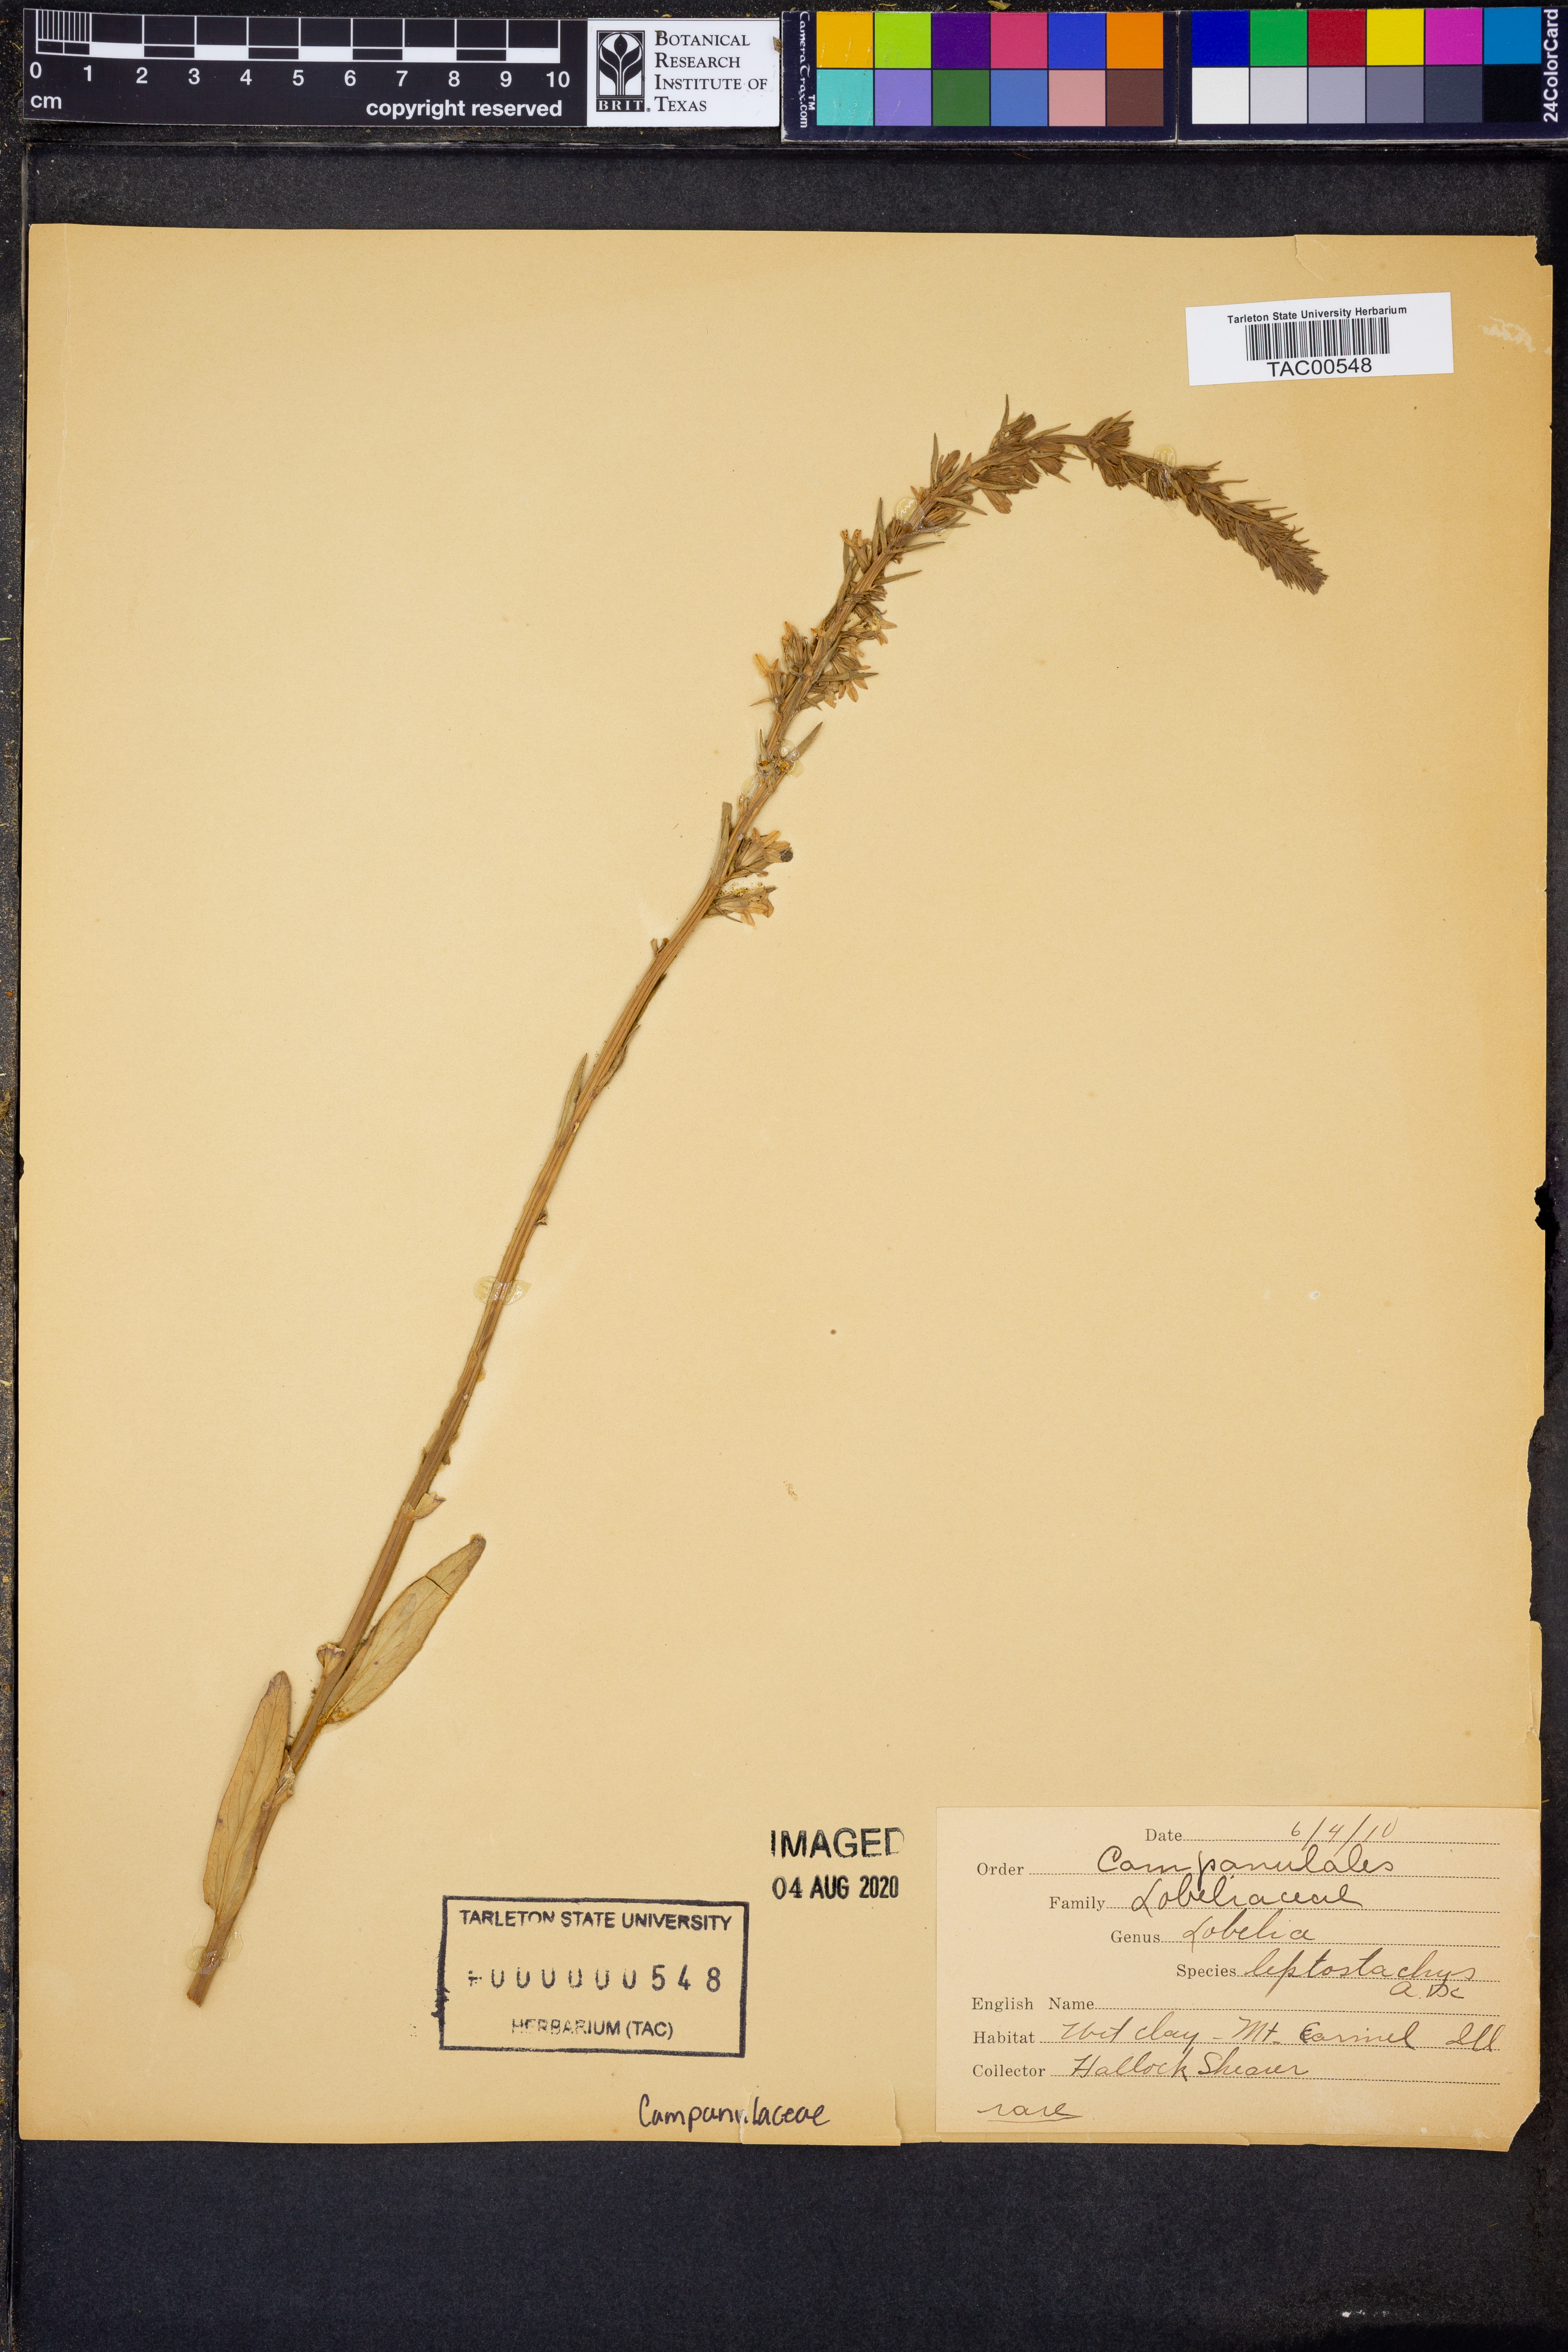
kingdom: Plantae
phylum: Tracheophyta
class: Magnoliopsida
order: Asterales
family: Campanulaceae
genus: Lobelia
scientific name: Lobelia spicata
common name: Pale-spike lobelia
